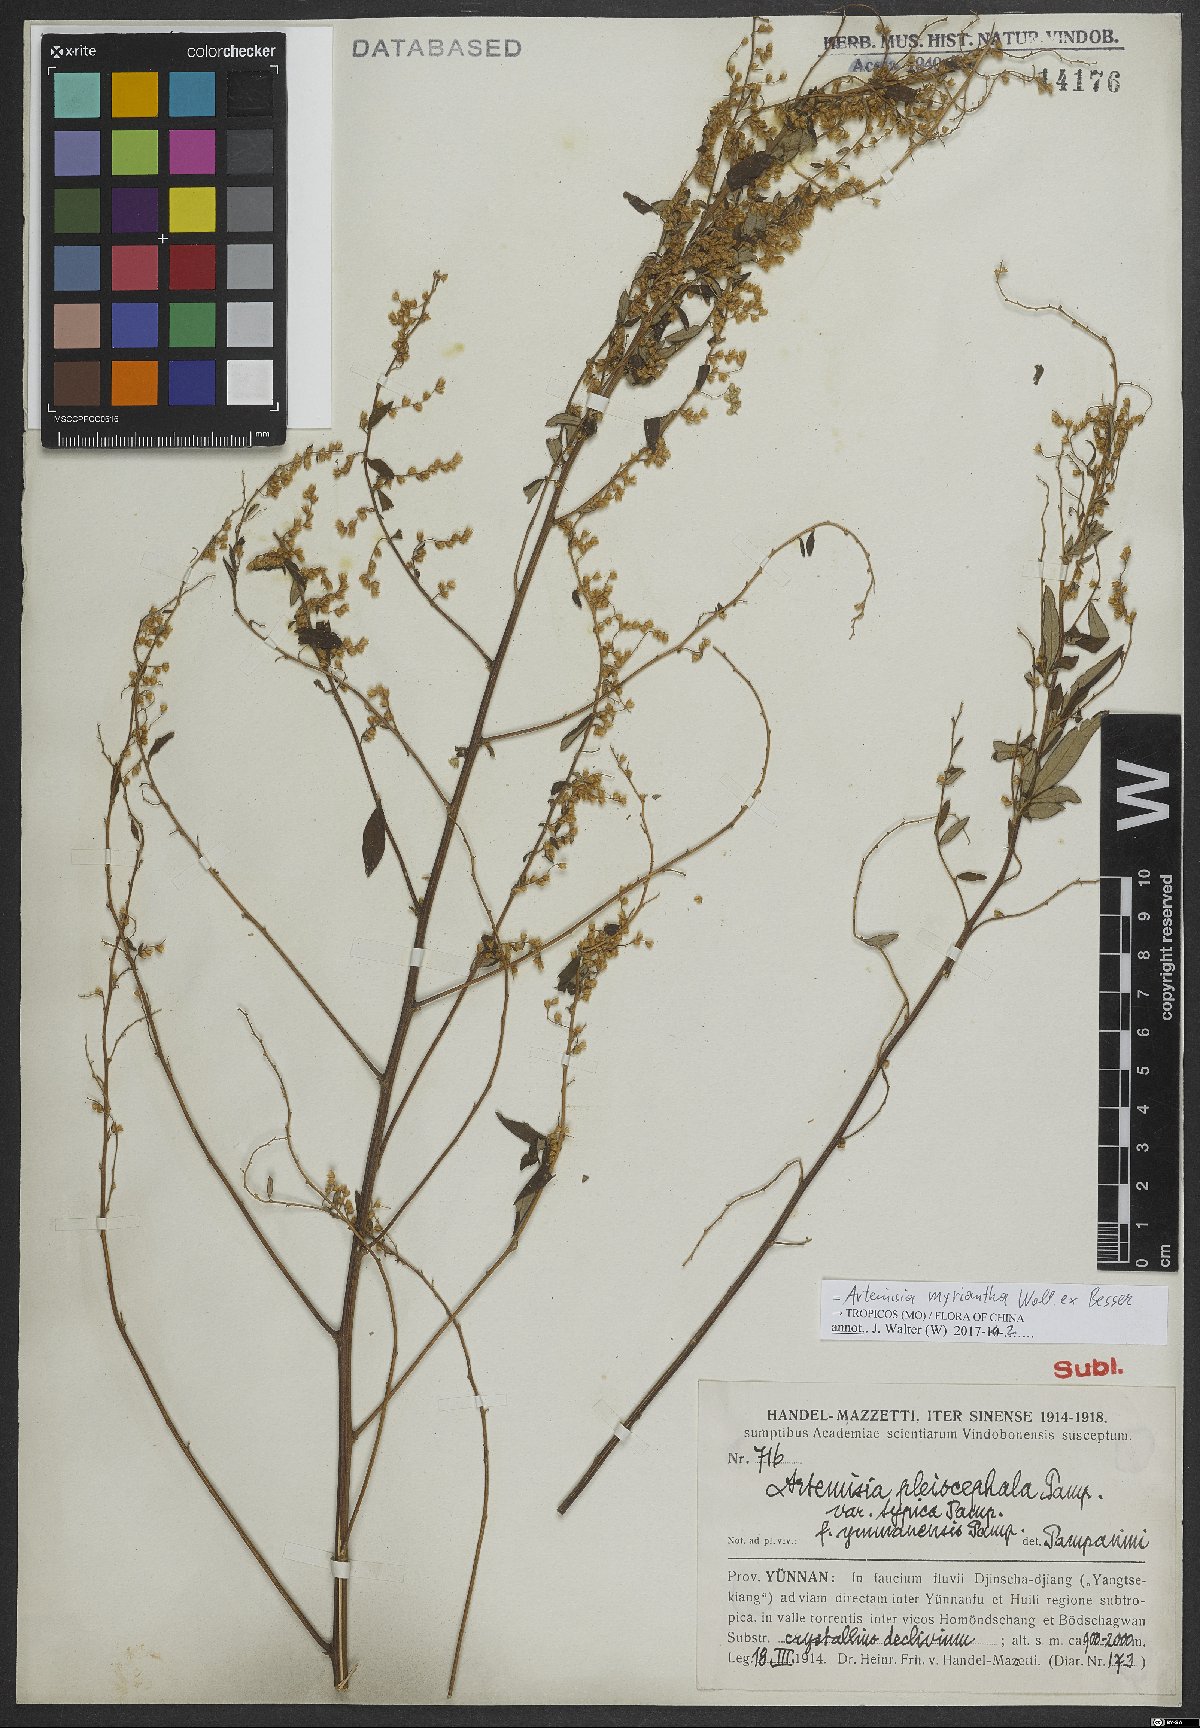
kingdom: Plantae
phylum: Tracheophyta
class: Magnoliopsida
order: Asterales
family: Asteraceae
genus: Artemisia
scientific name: Artemisia myriantha
